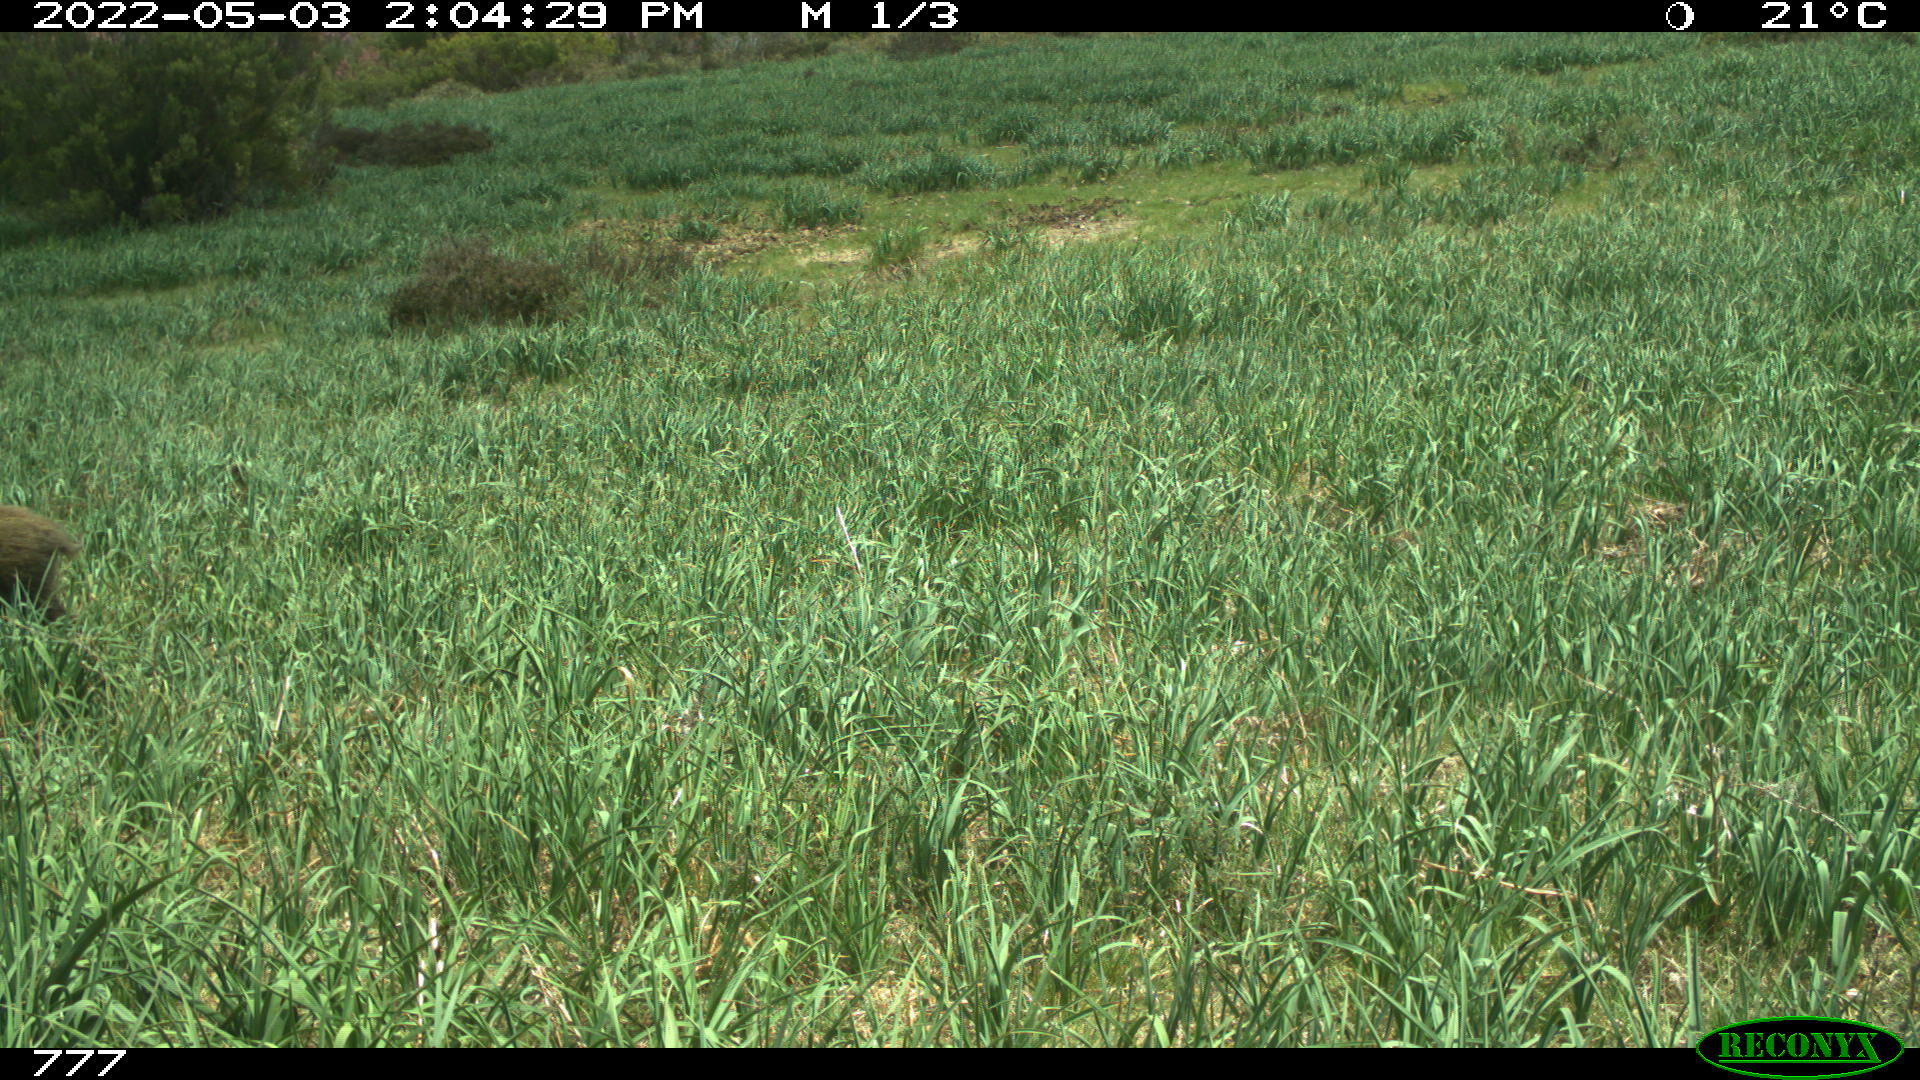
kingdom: Animalia
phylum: Chordata
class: Mammalia
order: Artiodactyla
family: Suidae
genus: Sus
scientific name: Sus scrofa
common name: Wild boar
